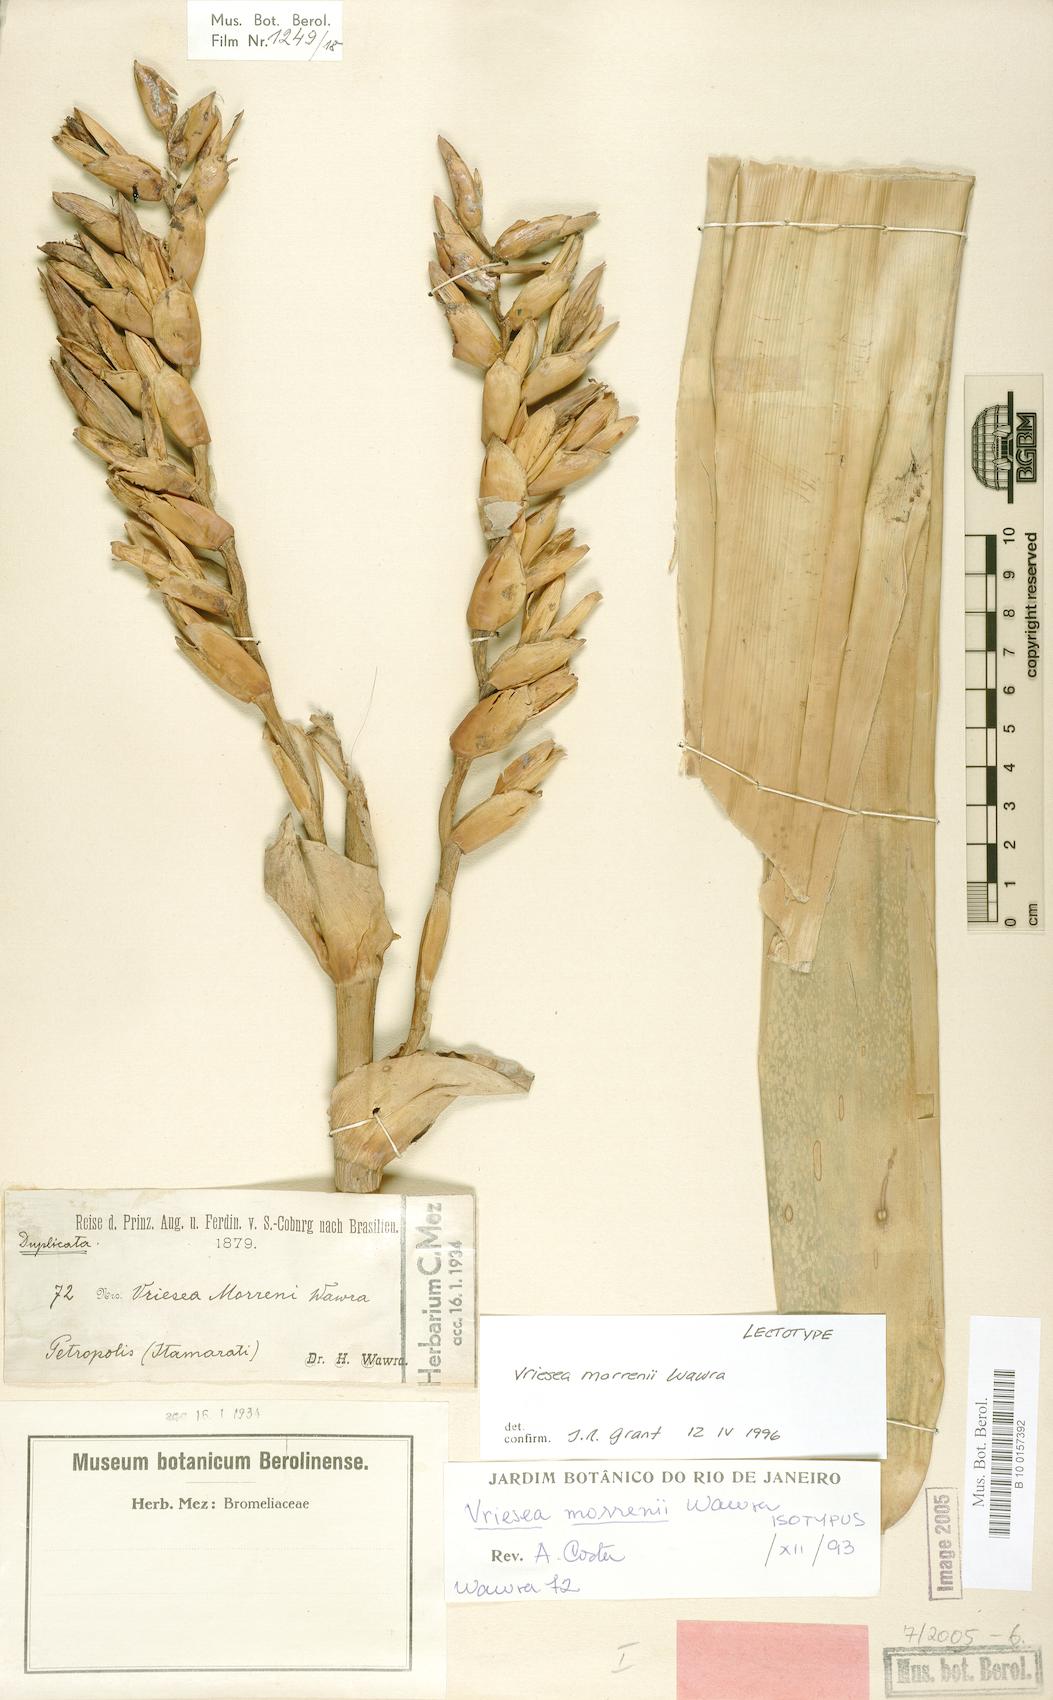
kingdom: Plantae
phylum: Tracheophyta
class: Liliopsida
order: Poales
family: Bromeliaceae
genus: Vriesea
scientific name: Vriesea morreni
